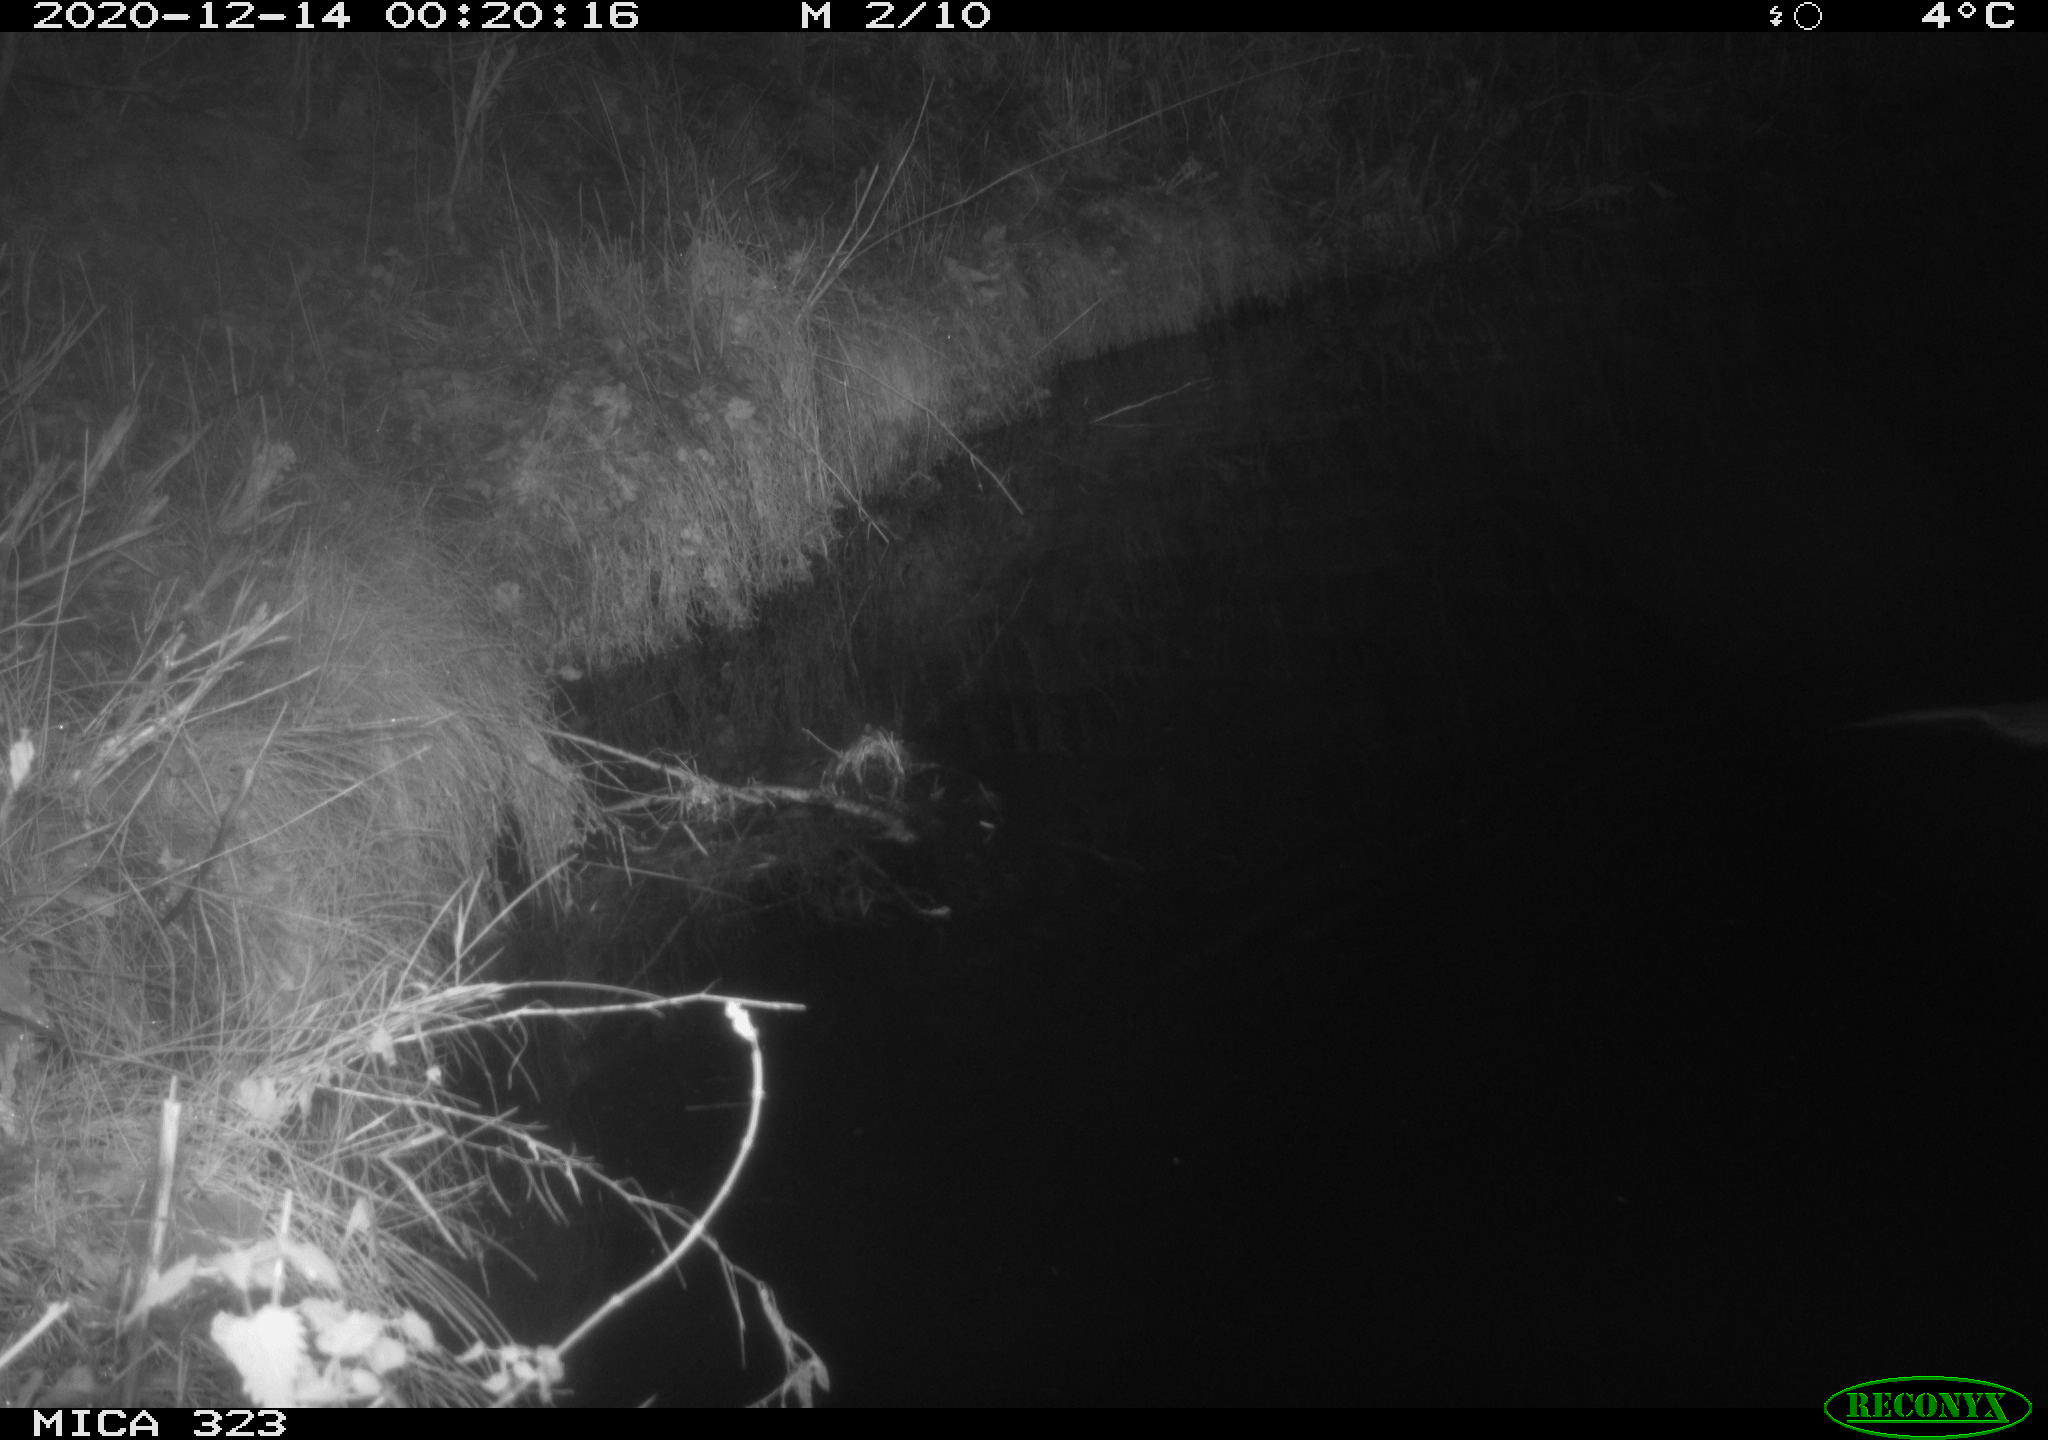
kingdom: Animalia
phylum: Chordata
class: Mammalia
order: Rodentia
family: Myocastoridae
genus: Myocastor
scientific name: Myocastor coypus
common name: Coypu
